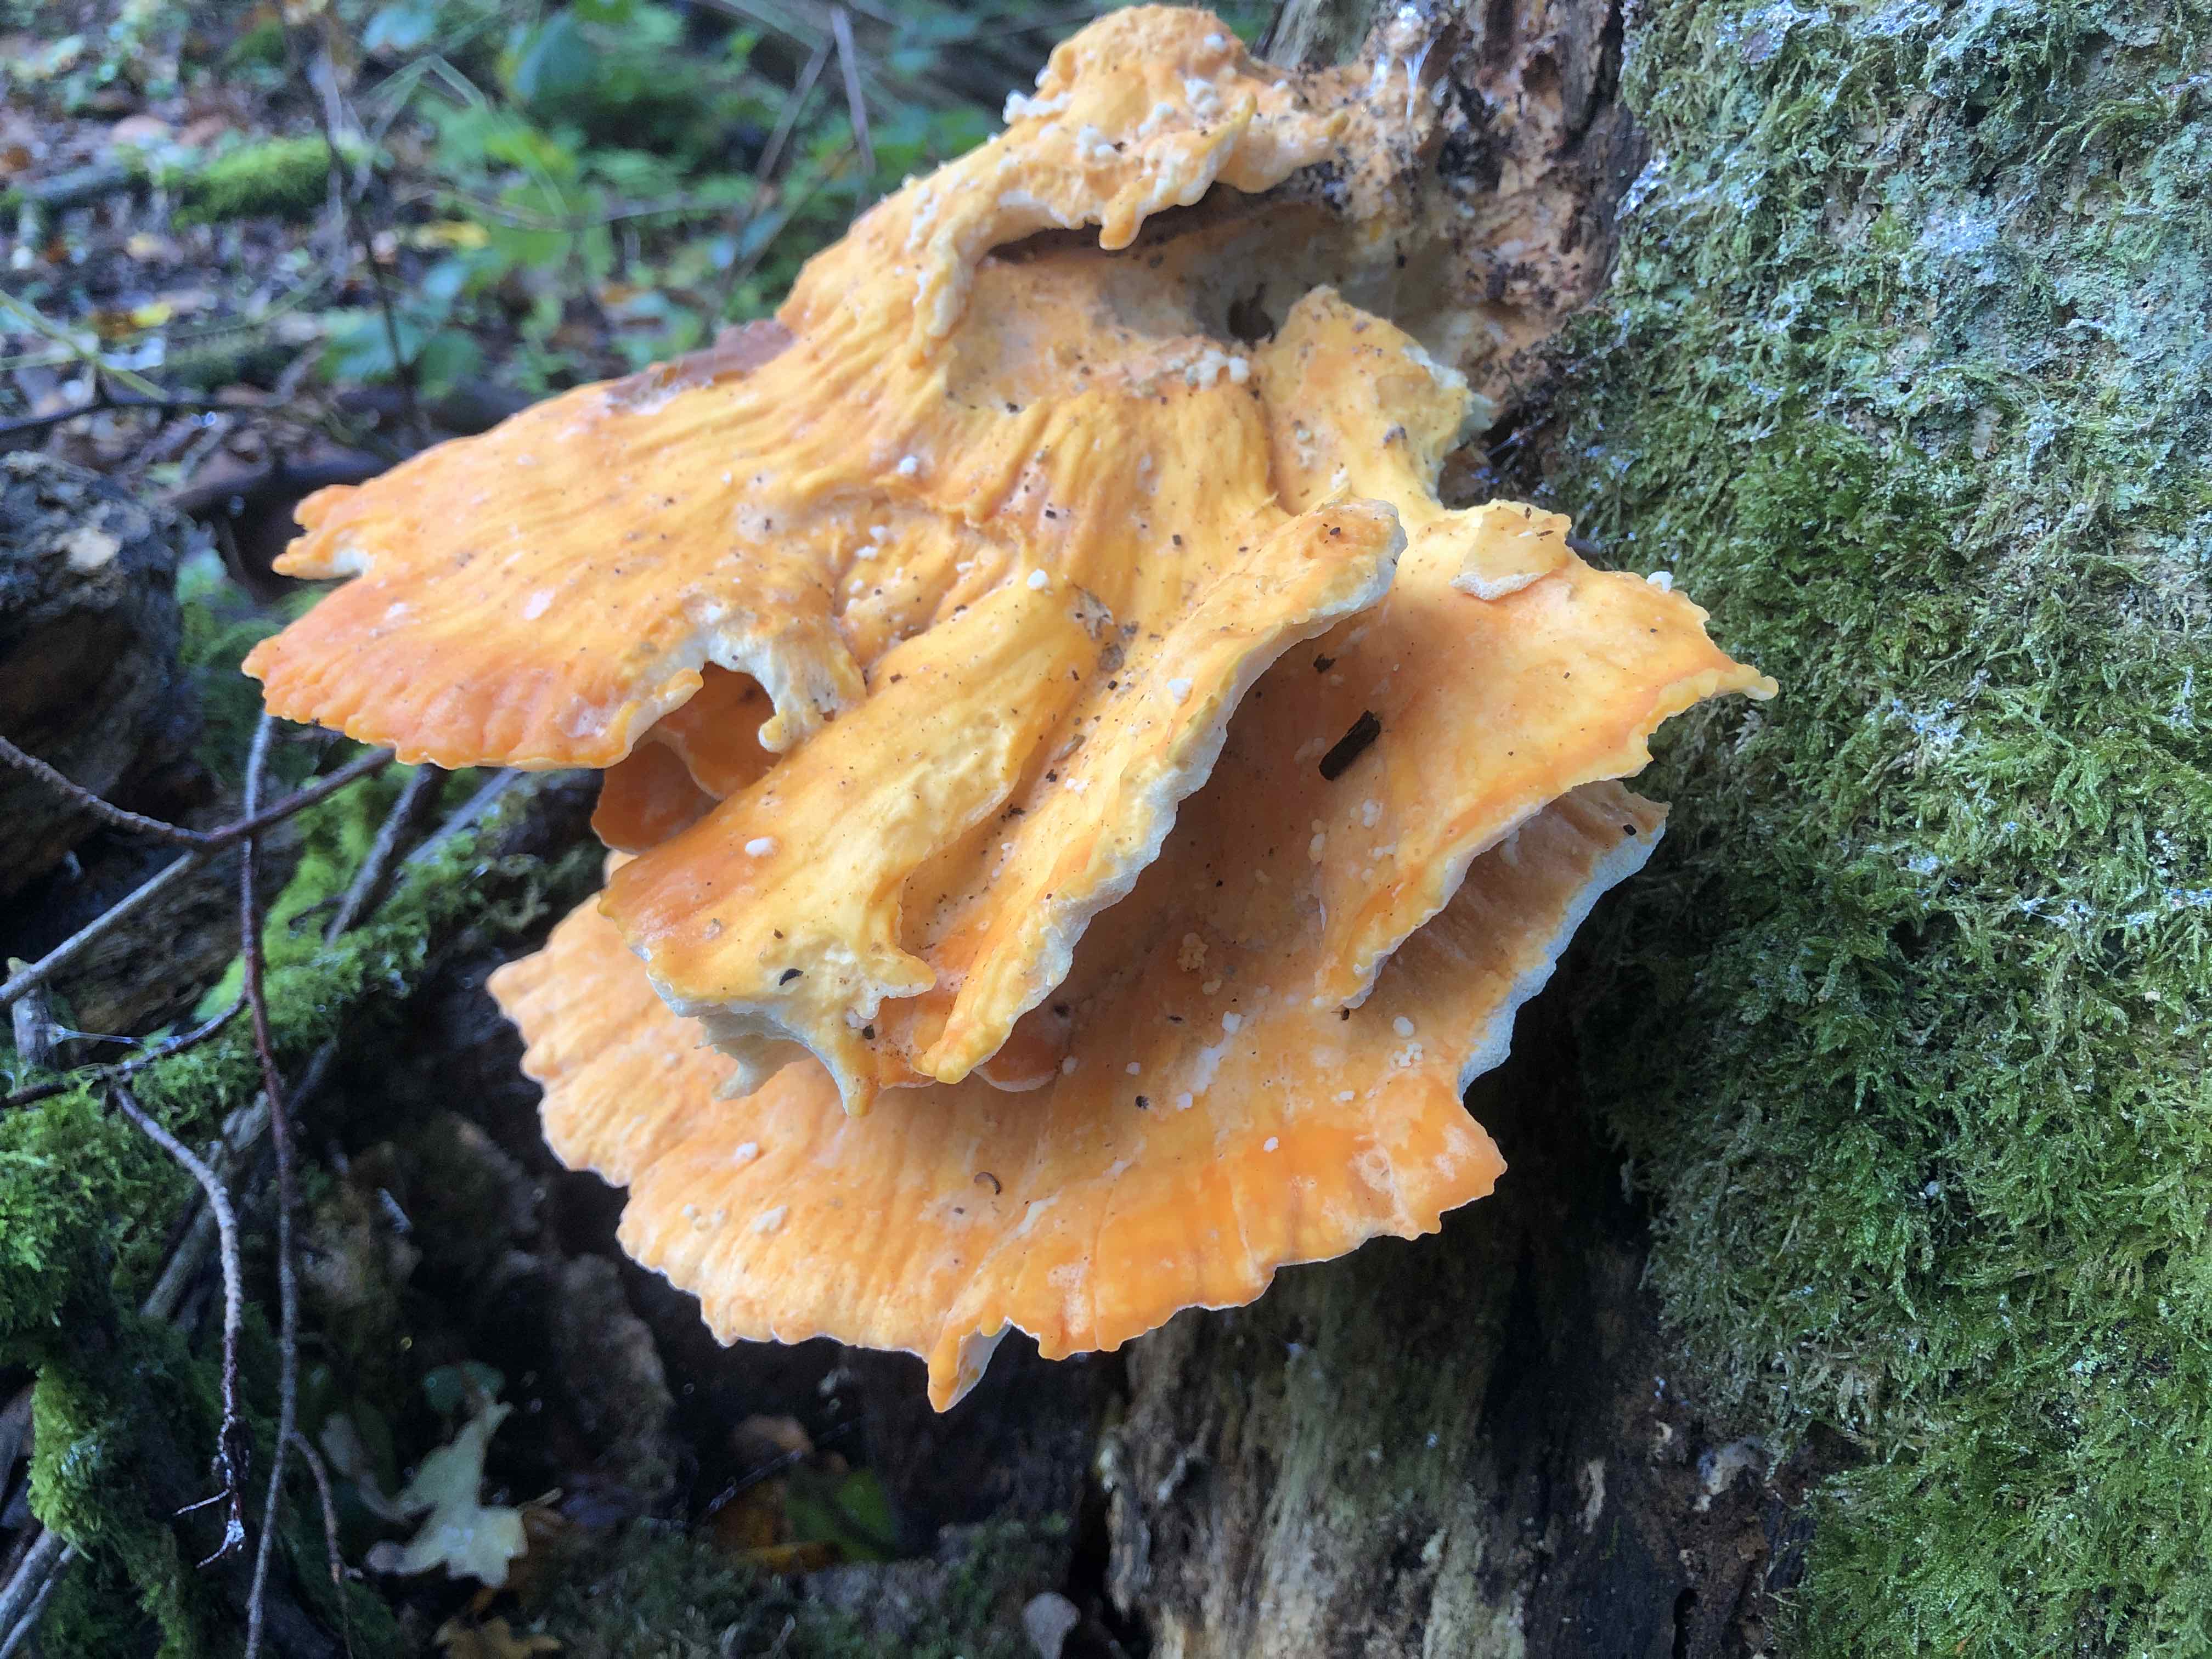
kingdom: Fungi
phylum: Basidiomycota
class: Agaricomycetes
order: Polyporales
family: Laetiporaceae
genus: Laetiporus
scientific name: Laetiporus sulphureus
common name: svovlporesvamp
